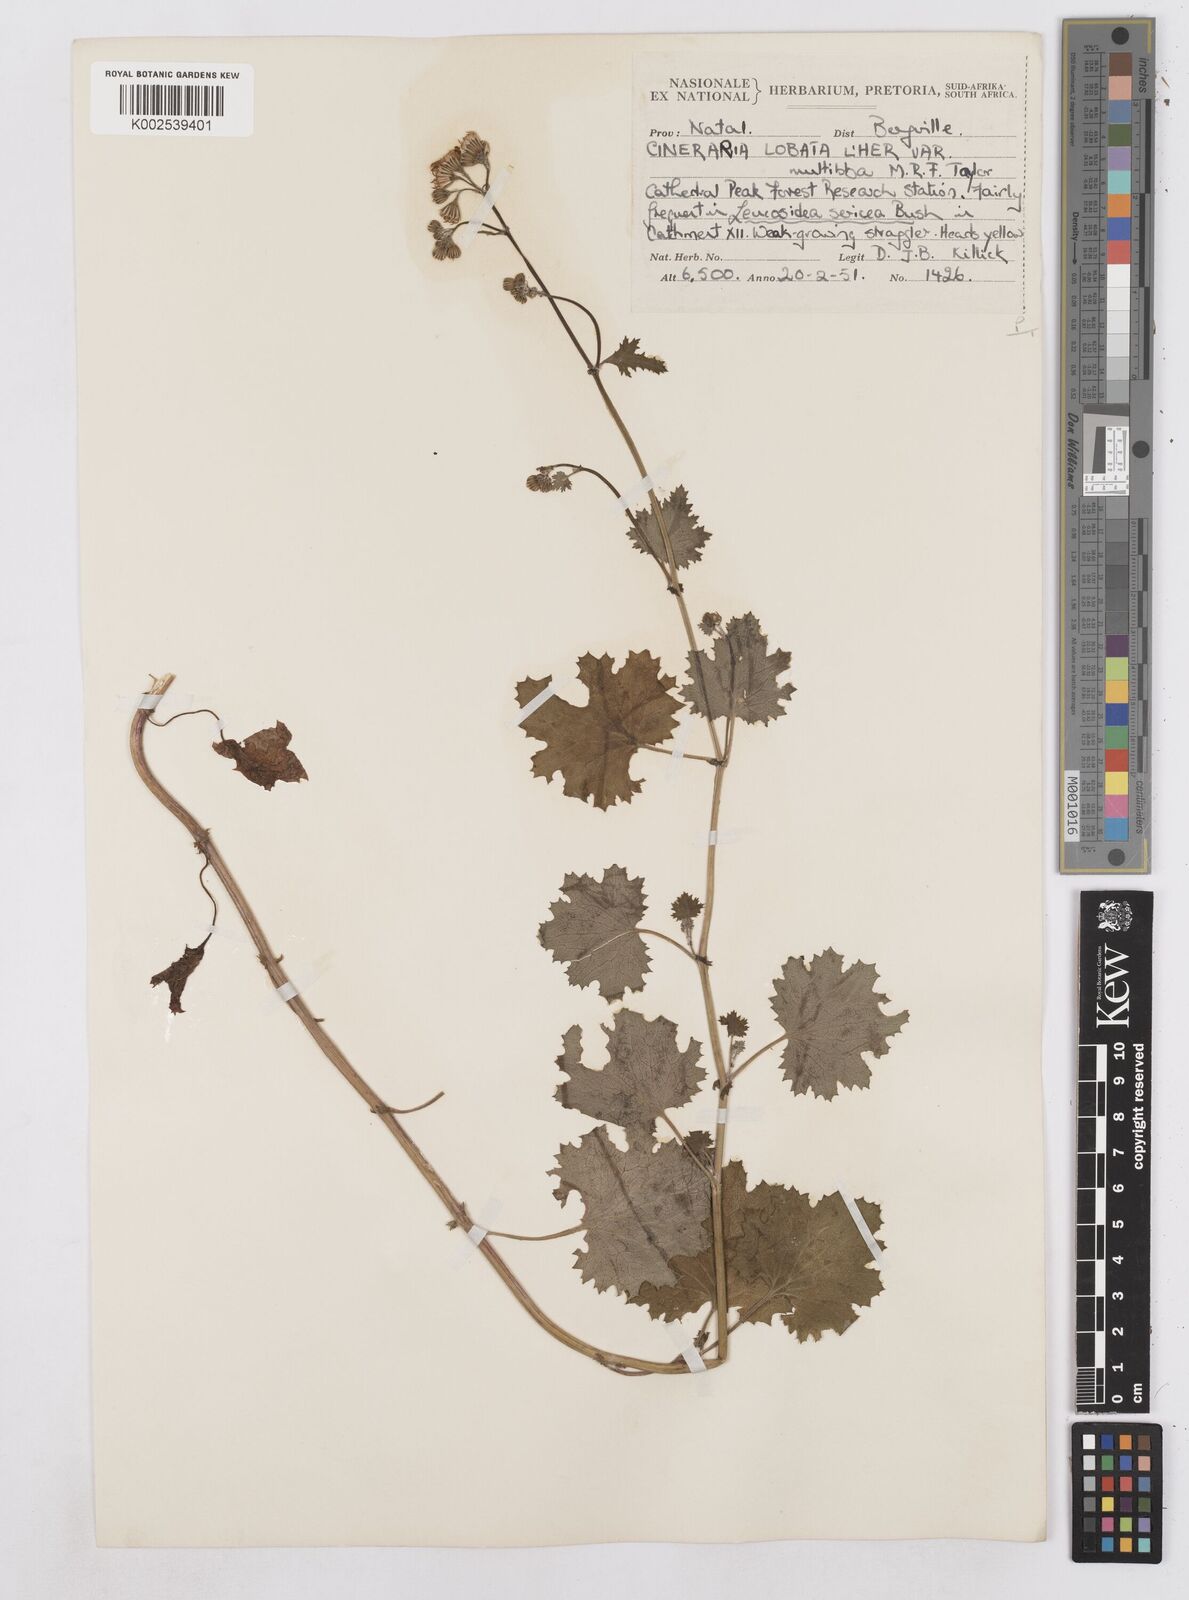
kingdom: Plantae
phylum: Tracheophyta
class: Magnoliopsida
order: Asterales
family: Asteraceae
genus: Cineraria
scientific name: Cineraria
